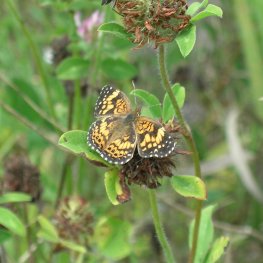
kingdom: Animalia
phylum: Arthropoda
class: Insecta
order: Lepidoptera
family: Nymphalidae
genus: Chlosyne
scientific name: Chlosyne gorgone
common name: Gorgone Checkerspot
